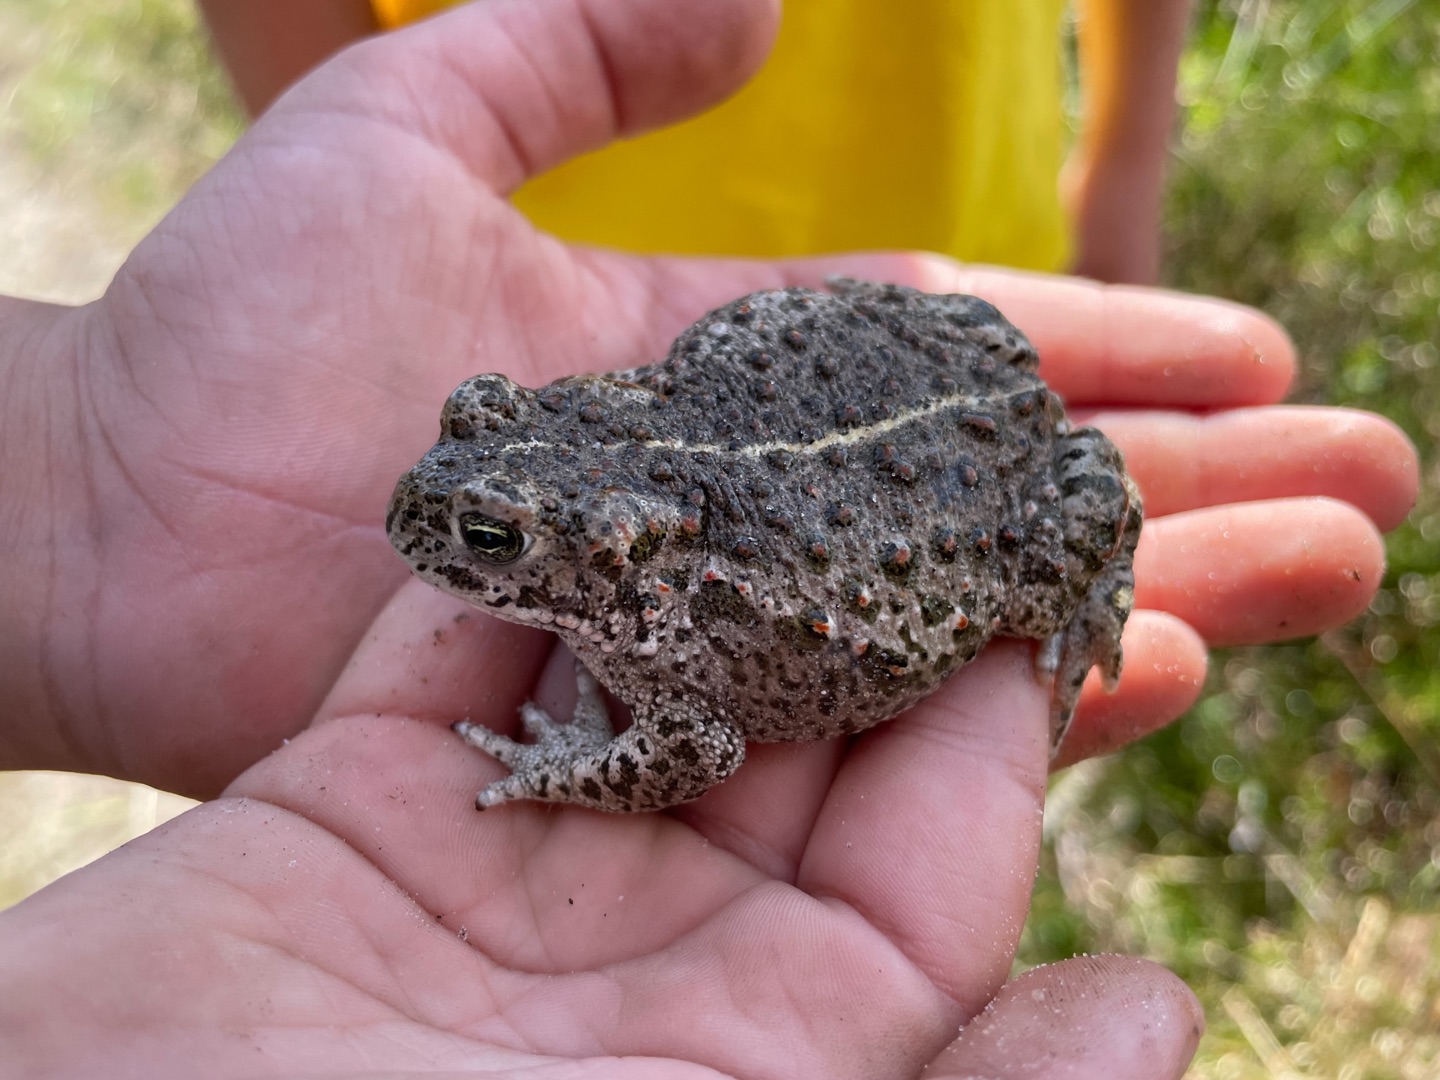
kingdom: Animalia
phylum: Chordata
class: Amphibia
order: Anura
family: Bufonidae
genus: Epidalea
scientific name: Epidalea calamita
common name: Strandtudse
